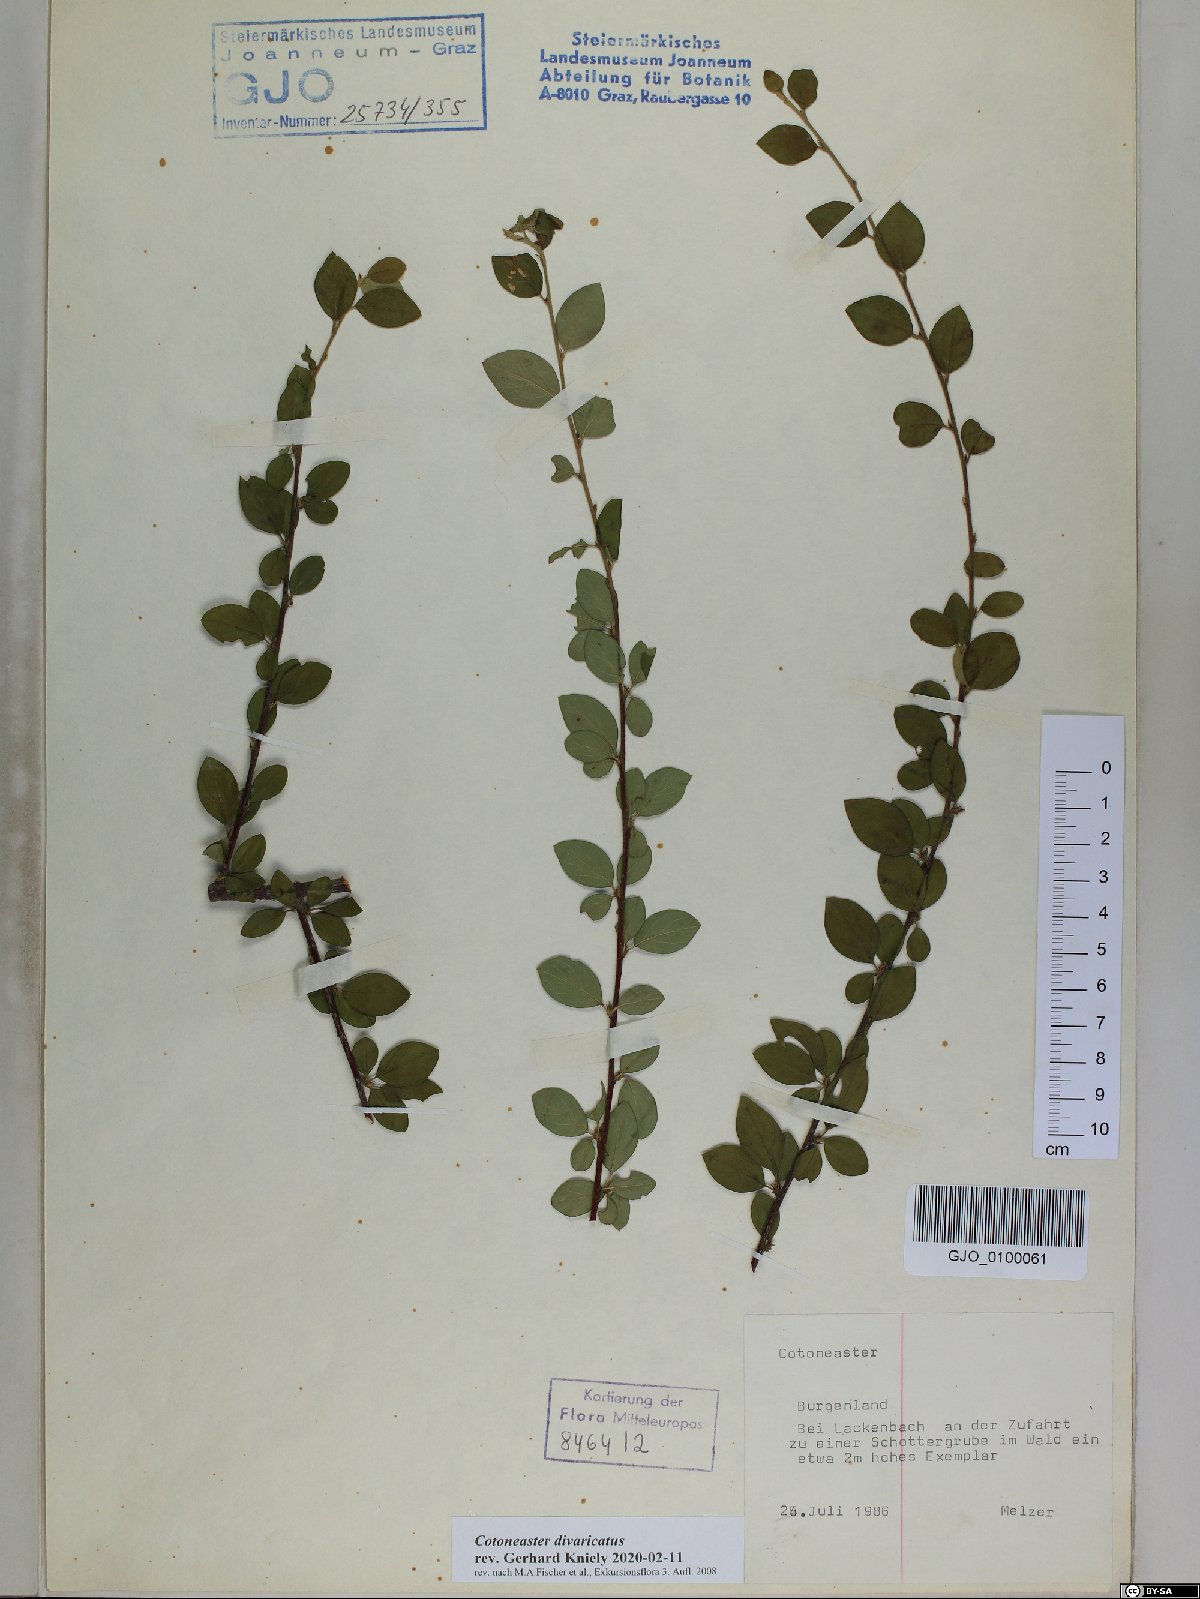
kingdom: Plantae
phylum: Tracheophyta
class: Magnoliopsida
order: Rosales
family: Rosaceae
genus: Cotoneaster
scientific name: Cotoneaster divaricatus
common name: Spreading cotoneaster
